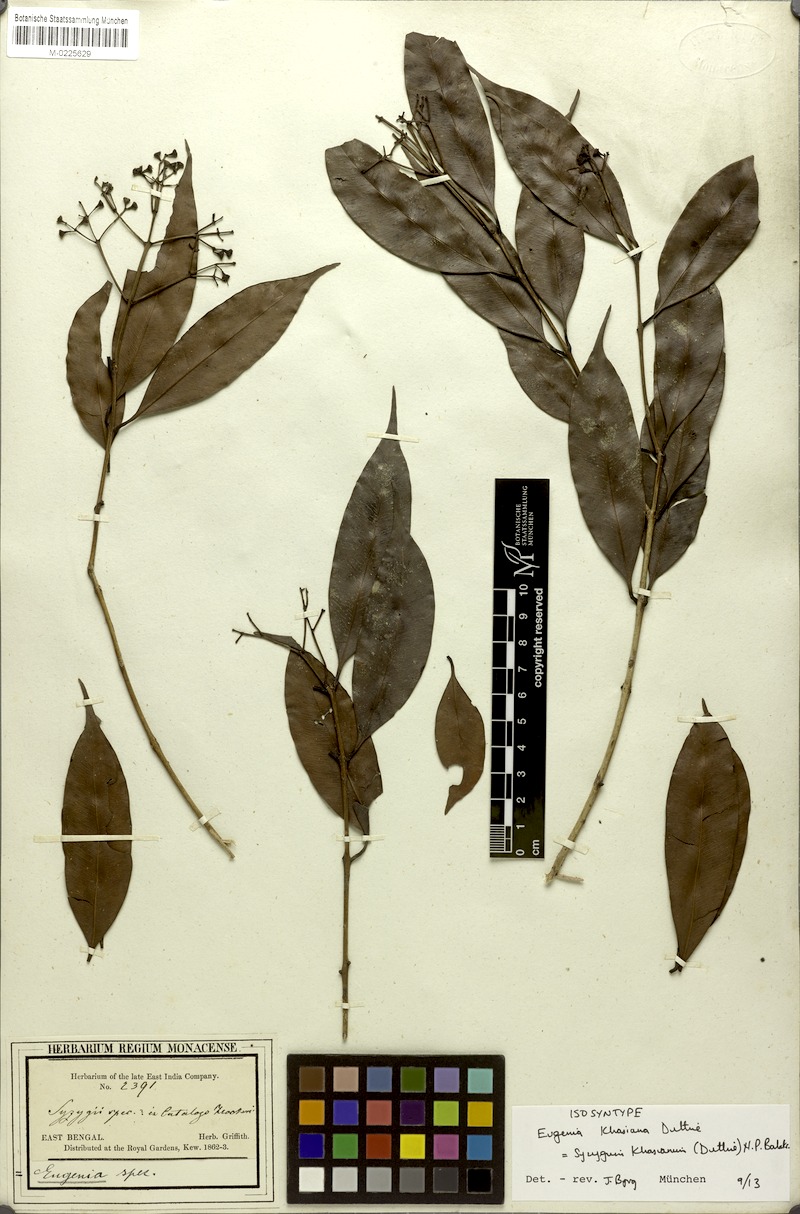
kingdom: Plantae
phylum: Tracheophyta
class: Magnoliopsida
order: Myrtales
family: Myrtaceae
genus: Syzygium
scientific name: Syzygium khasianum
